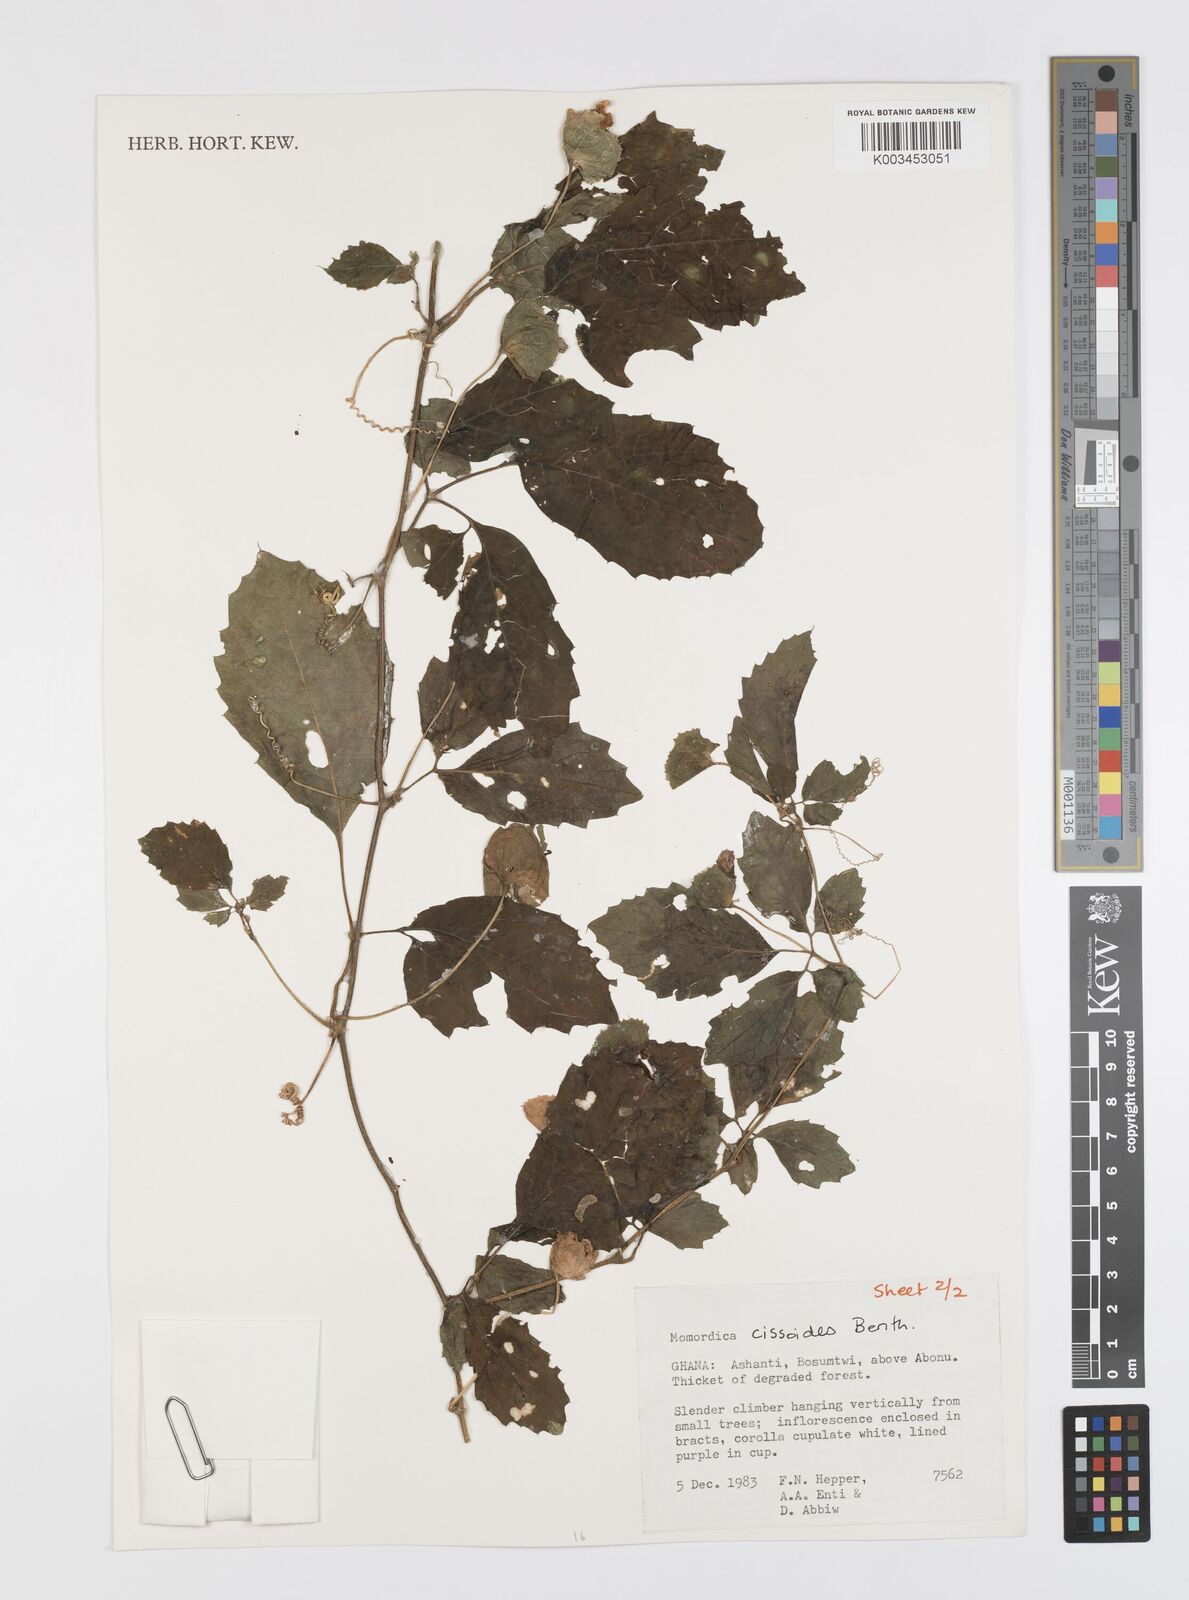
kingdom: Plantae
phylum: Tracheophyta
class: Magnoliopsida
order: Cucurbitales
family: Cucurbitaceae
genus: Momordica
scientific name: Momordica cissoides
